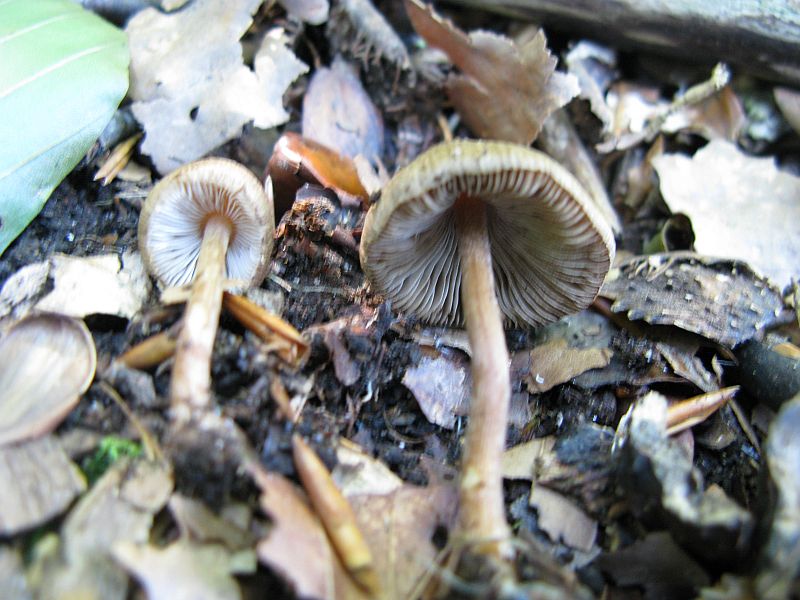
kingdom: Fungi
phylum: Basidiomycota
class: Agaricomycetes
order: Agaricales
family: Inocybaceae
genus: Inocybe
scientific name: Inocybe
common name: trævlhat
